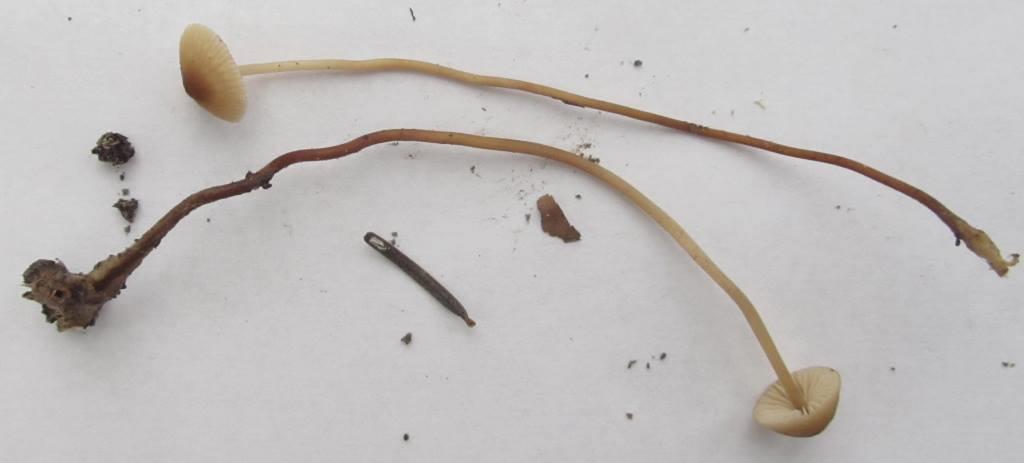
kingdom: Fungi
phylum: Basidiomycota
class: Agaricomycetes
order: Agaricales
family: Marasmiaceae
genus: Marasmius
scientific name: Marasmius torquescens
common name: filtfodet bruskhat
